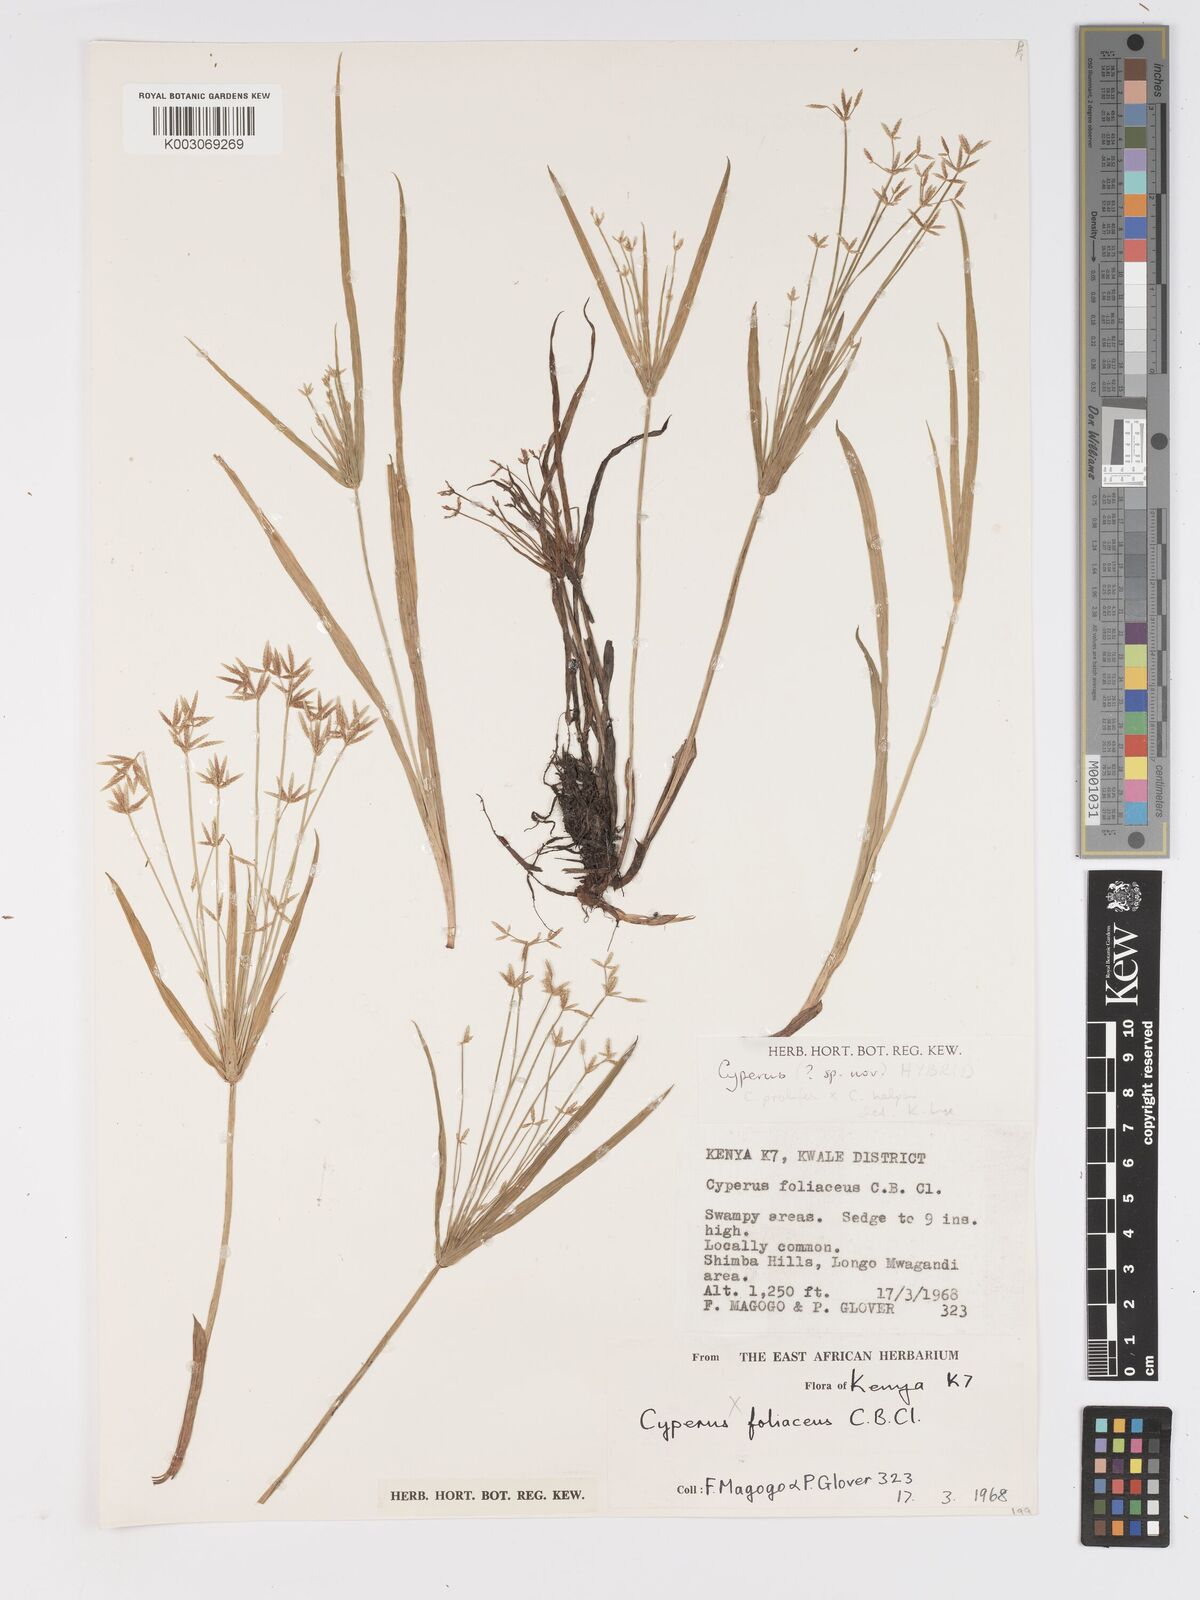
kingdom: Plantae
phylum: Tracheophyta
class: Liliopsida
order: Poales
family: Cyperaceae
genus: Cyperus
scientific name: Cyperus prolifer
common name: Miniature flatsedge
